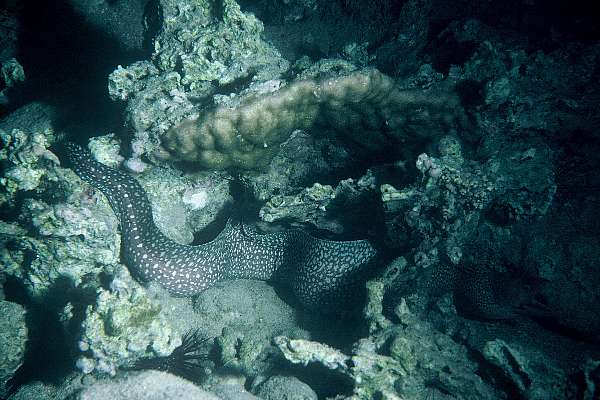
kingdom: Animalia
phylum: Chordata
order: Anguilliformes
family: Muraenidae
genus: Gymnothorax
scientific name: Gymnothorax punctatus
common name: Red sea whitespotted moray
